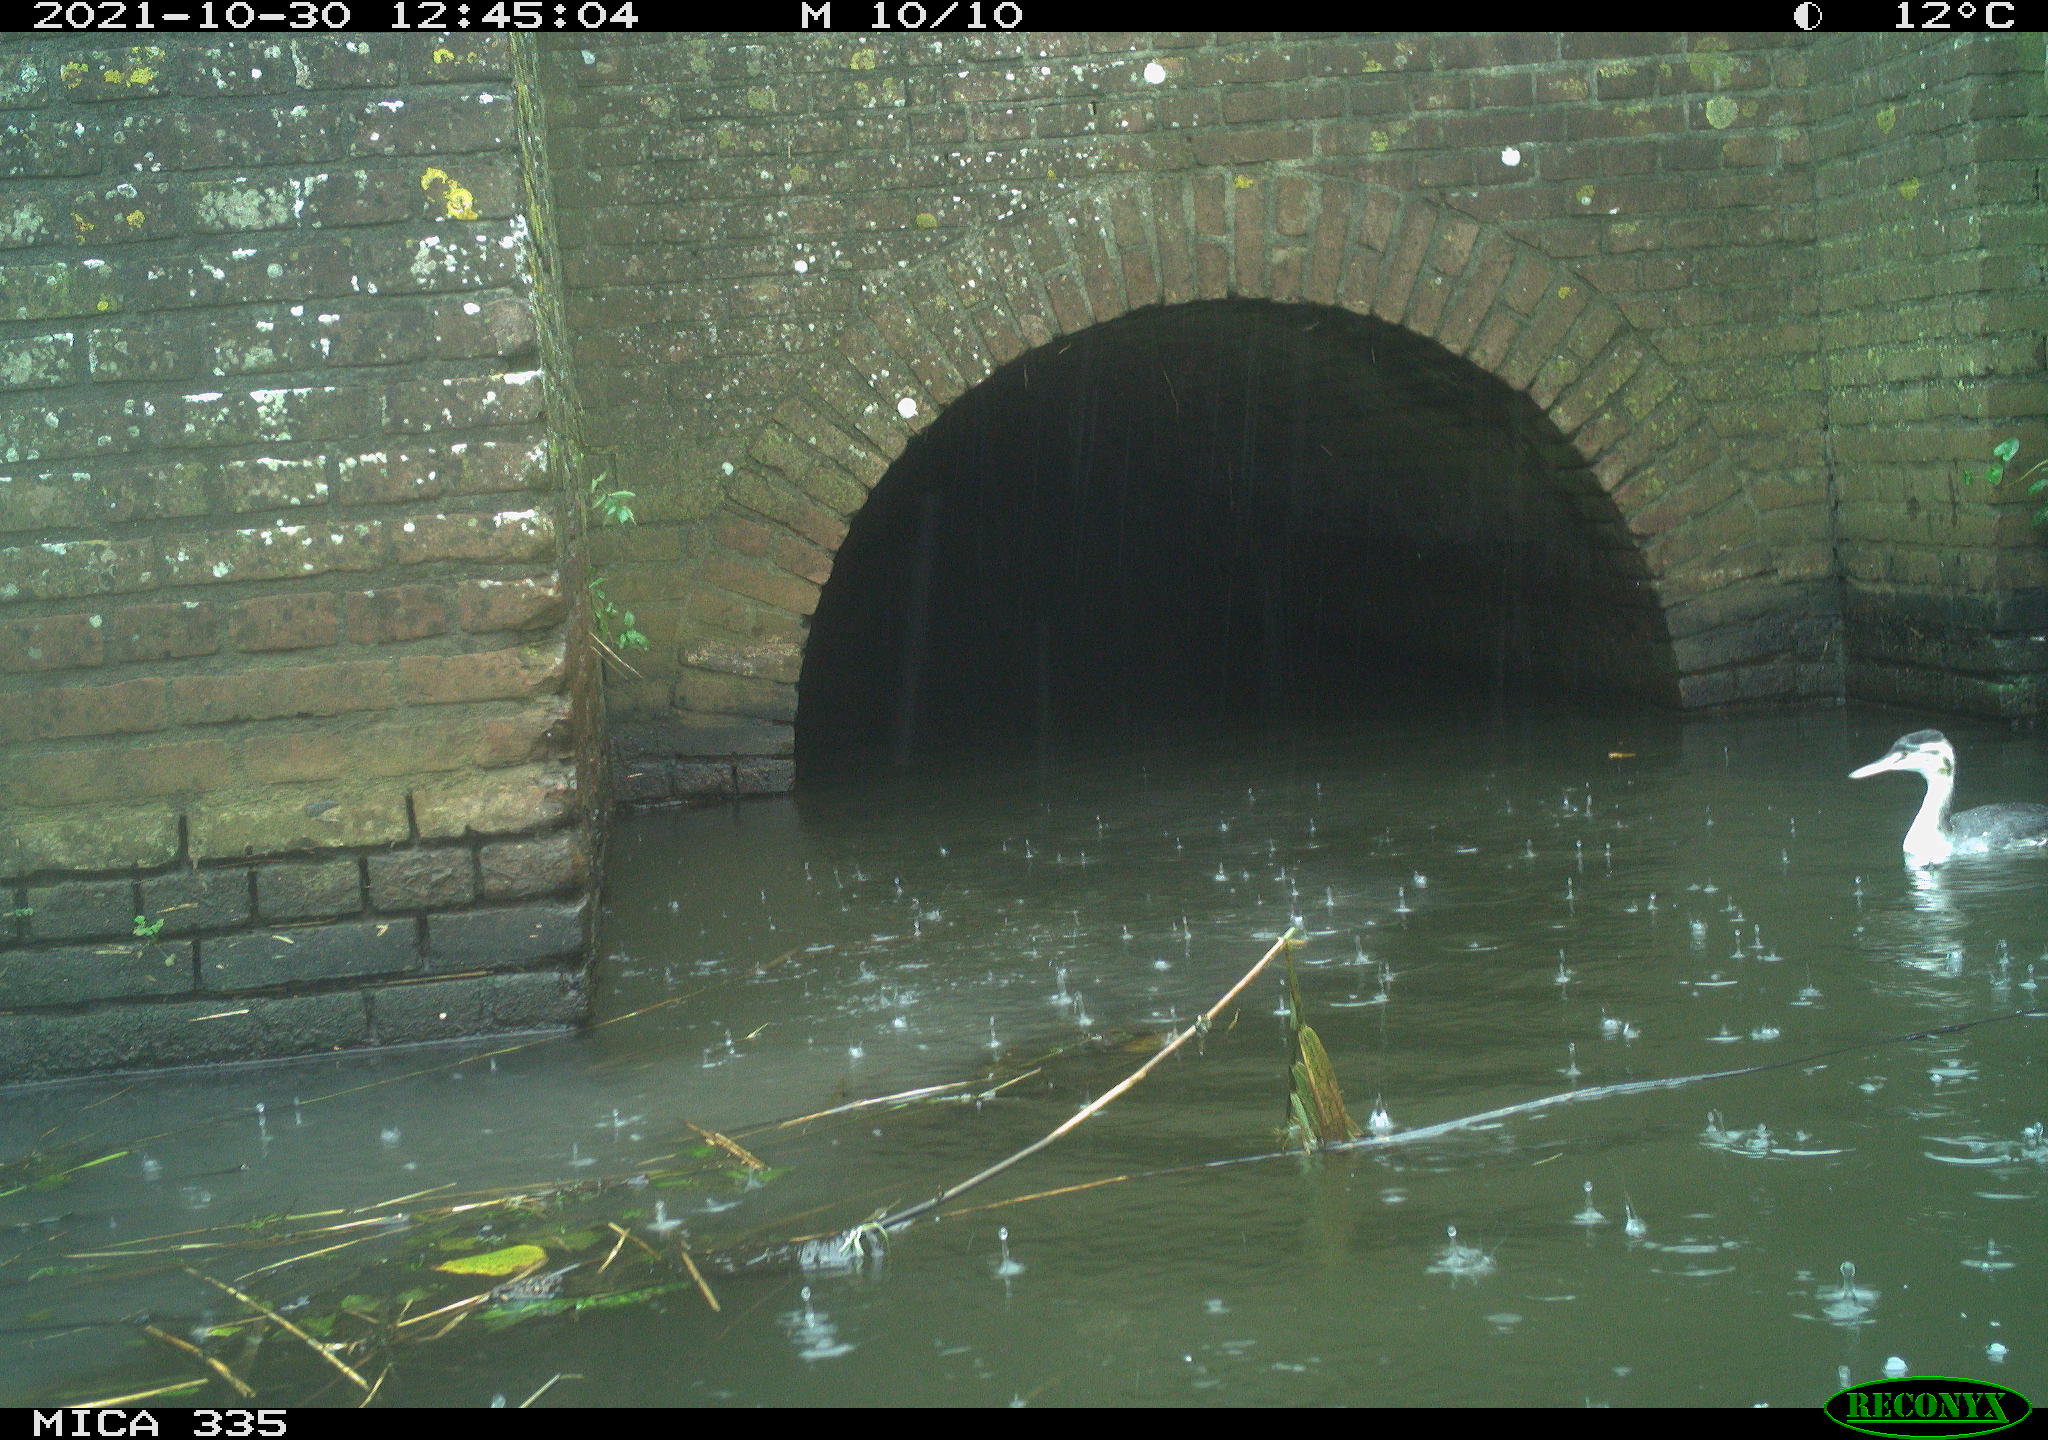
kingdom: Animalia
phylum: Chordata
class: Aves
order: Podicipediformes
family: Podicipedidae
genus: Podiceps
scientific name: Podiceps cristatus
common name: Great crested grebe
